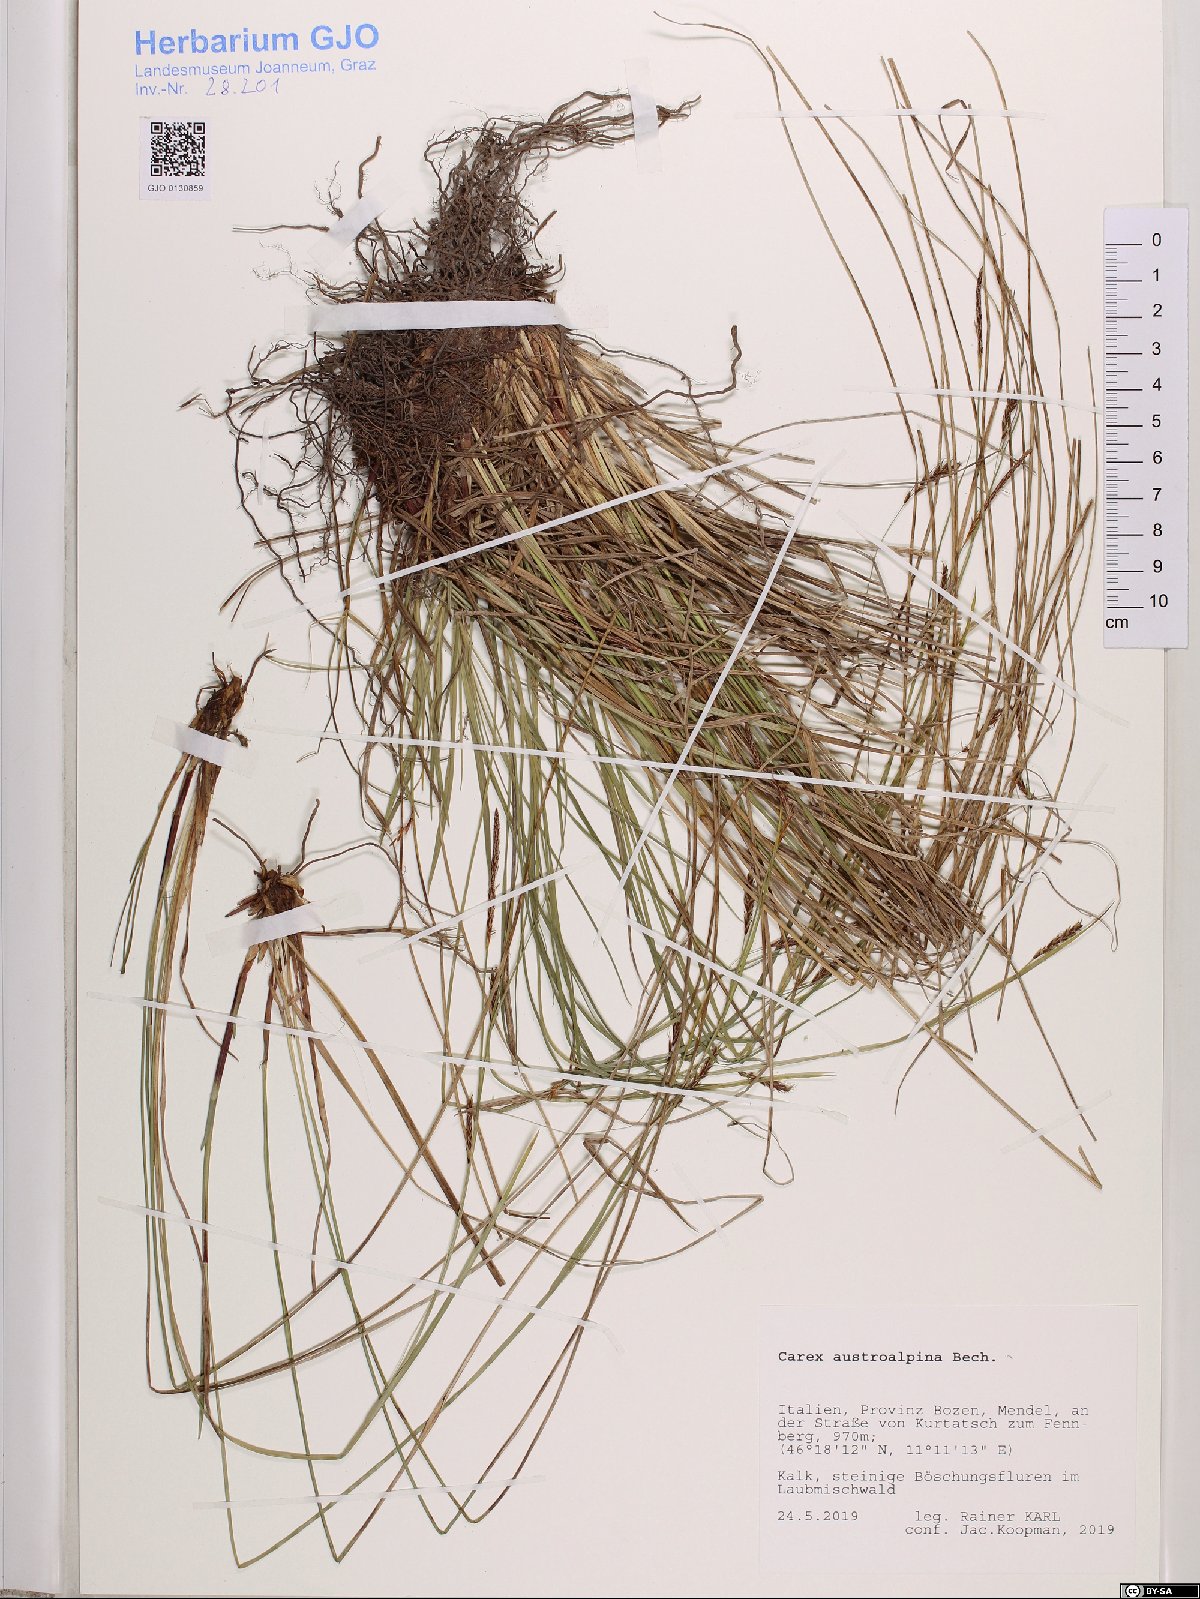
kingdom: Plantae
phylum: Tracheophyta
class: Liliopsida
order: Poales
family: Cyperaceae
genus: Carex
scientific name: Carex austroalpina
